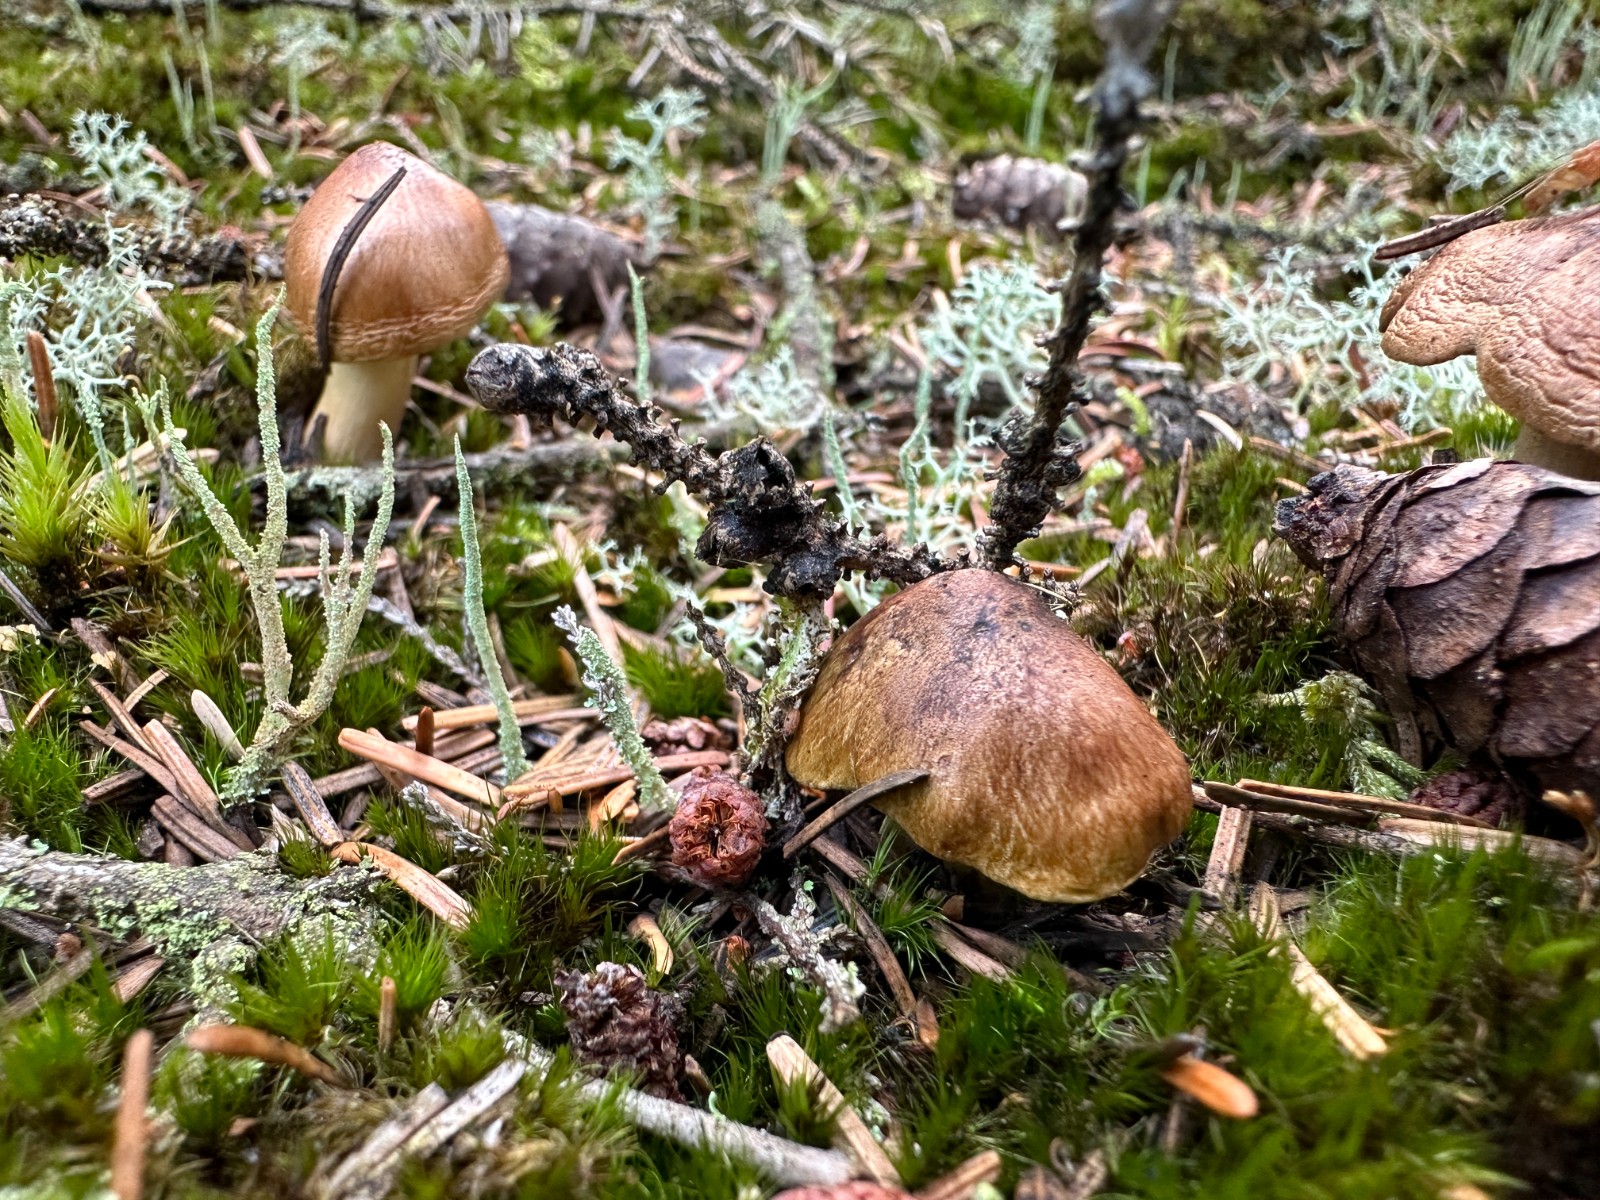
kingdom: Fungi
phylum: Basidiomycota
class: Agaricomycetes
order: Agaricales
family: Tricholomataceae
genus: Tricholoma
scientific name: Tricholoma aestuans
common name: kegle-ridderhat
